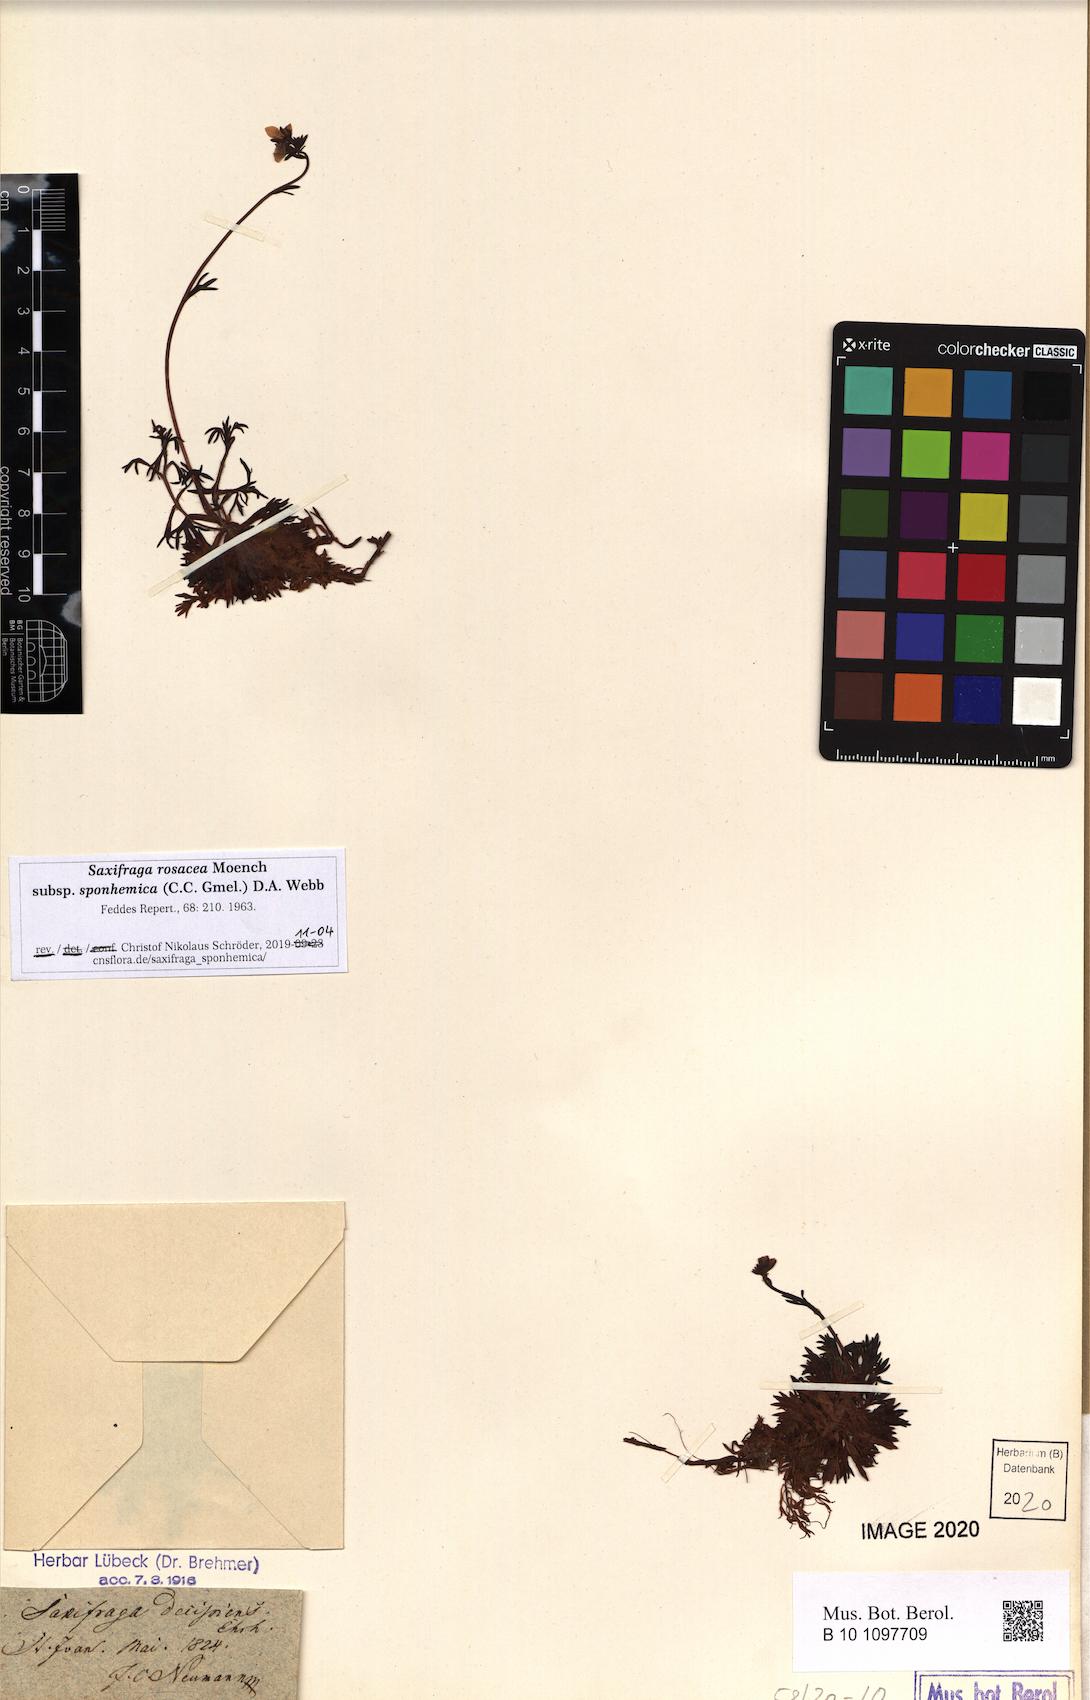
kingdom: Plantae
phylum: Tracheophyta
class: Magnoliopsida
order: Saxifragales
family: Saxifragaceae
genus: Saxifraga
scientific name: Saxifraga rosacea
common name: Irish saxifrage
